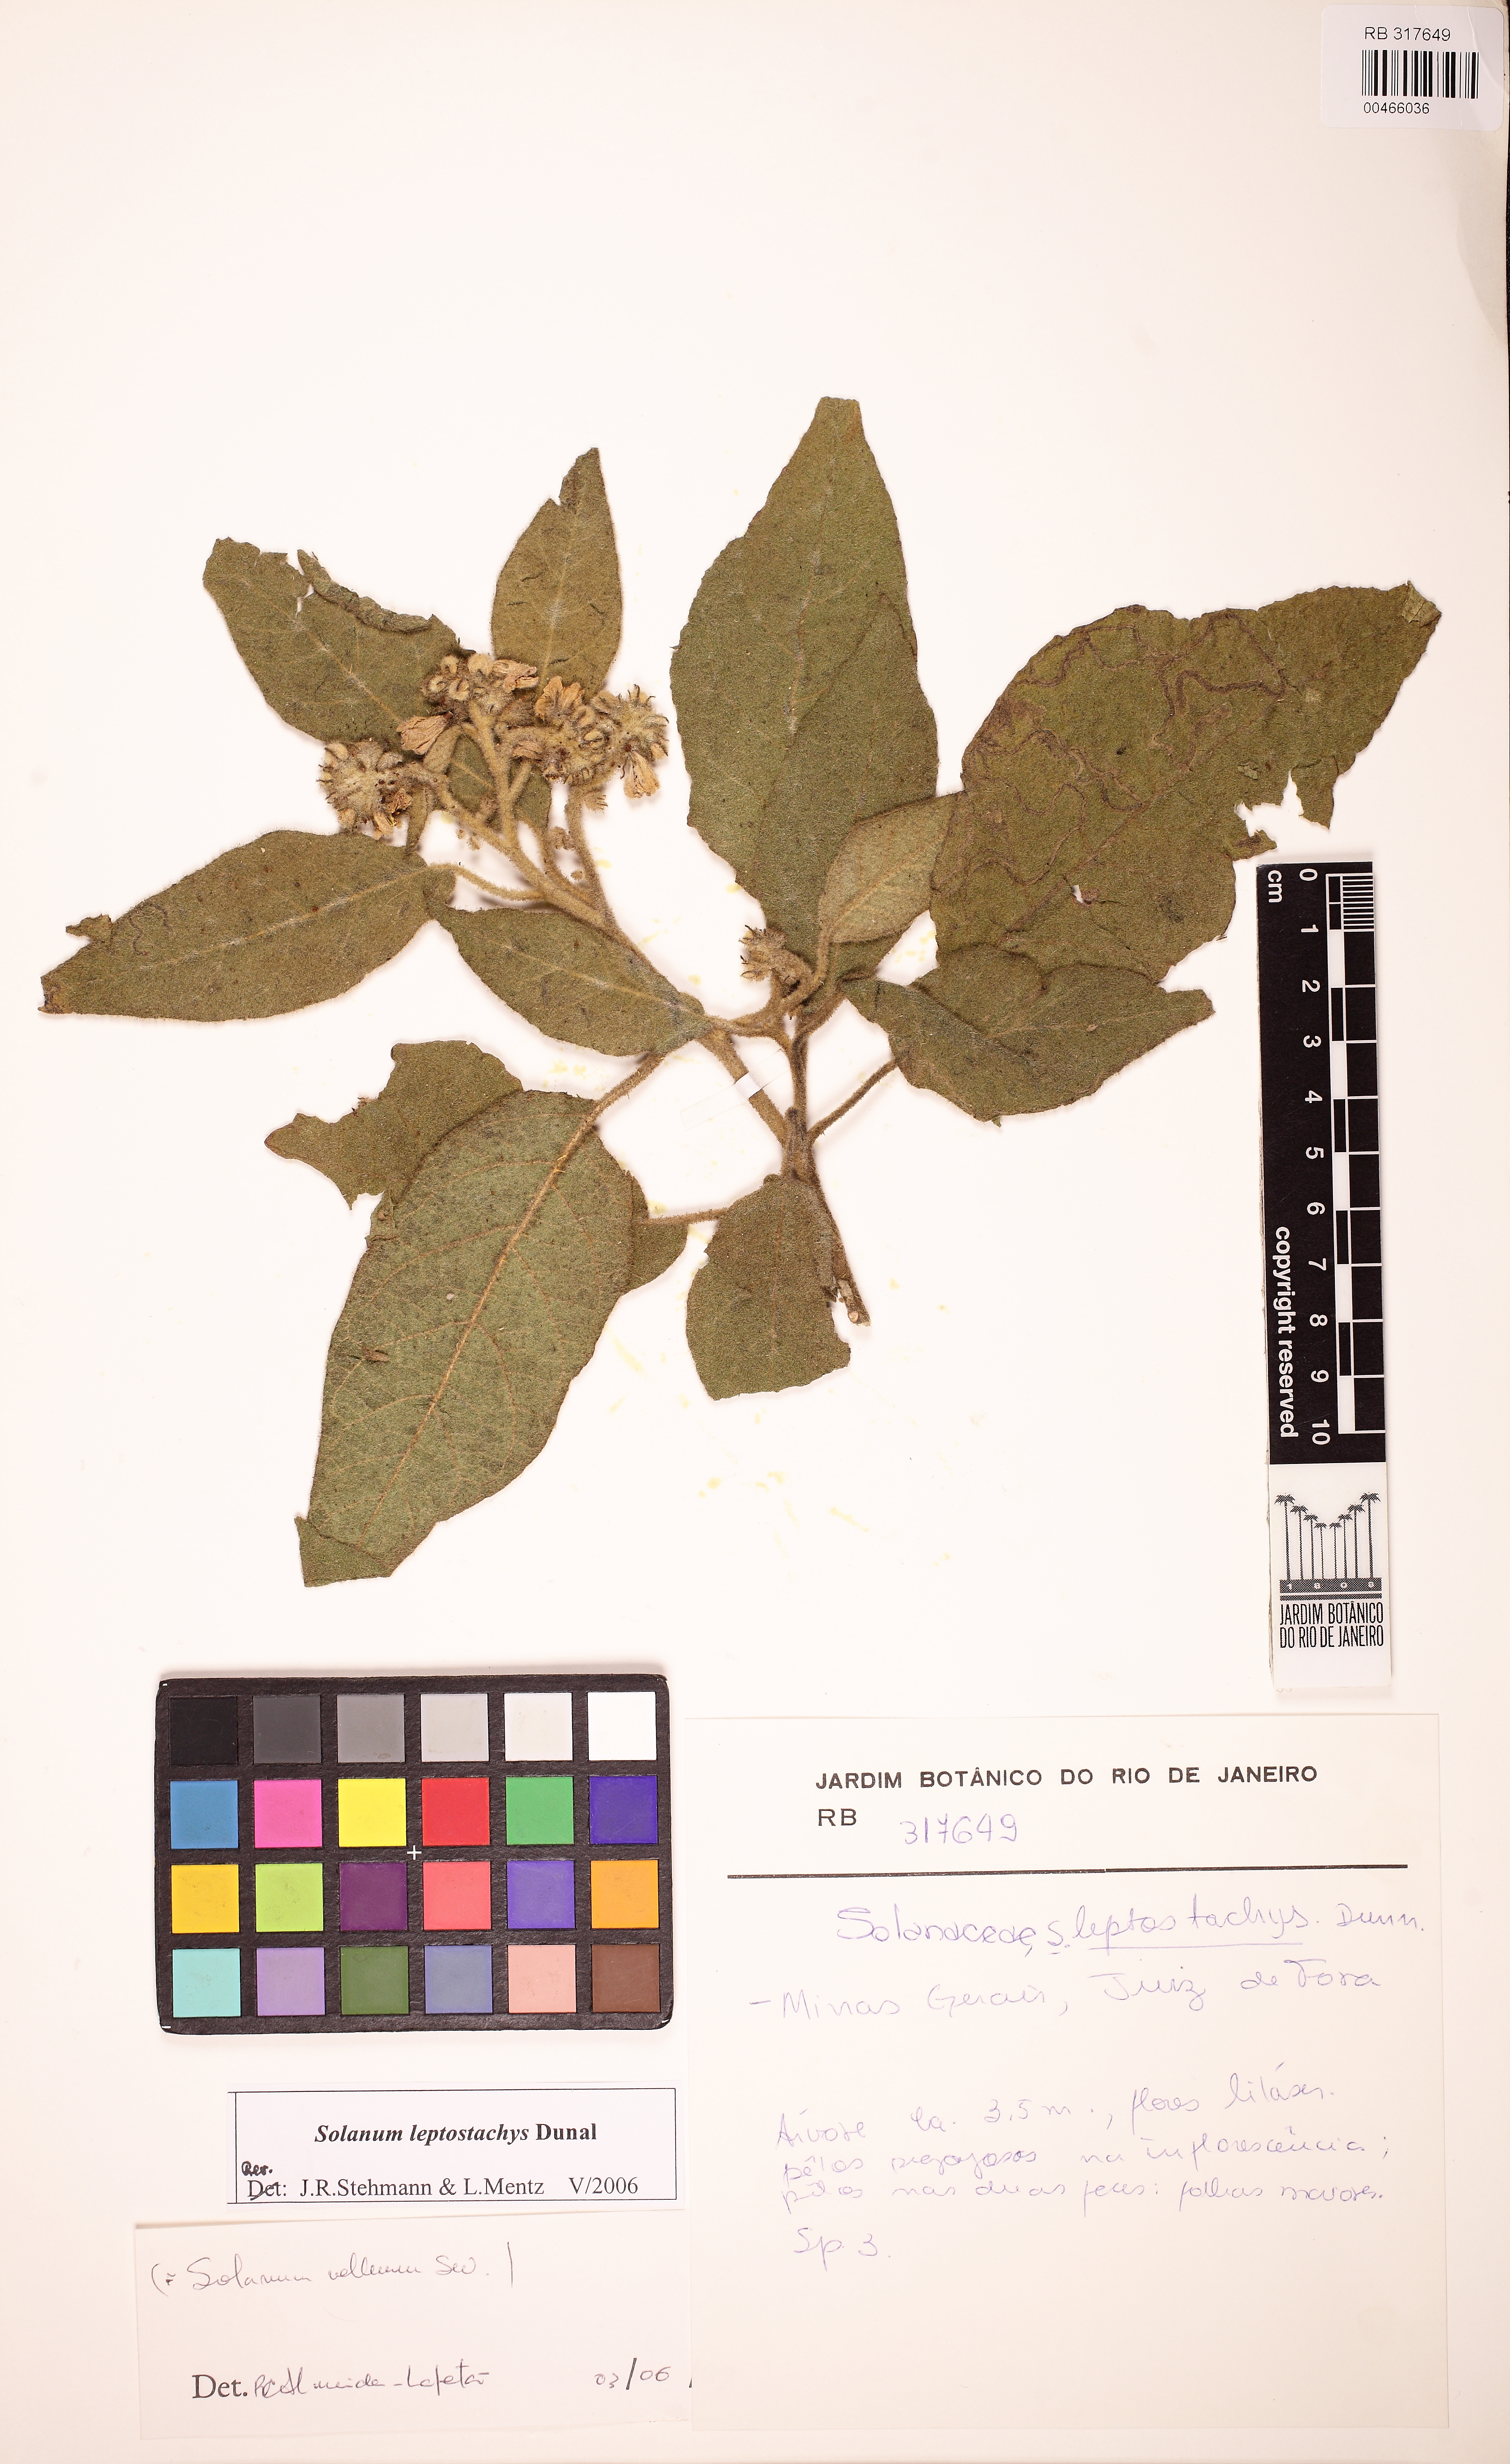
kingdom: Plantae
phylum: Tracheophyta
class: Magnoliopsida
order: Solanales
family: Solanaceae
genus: Solanum
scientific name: Solanum leptostachys
